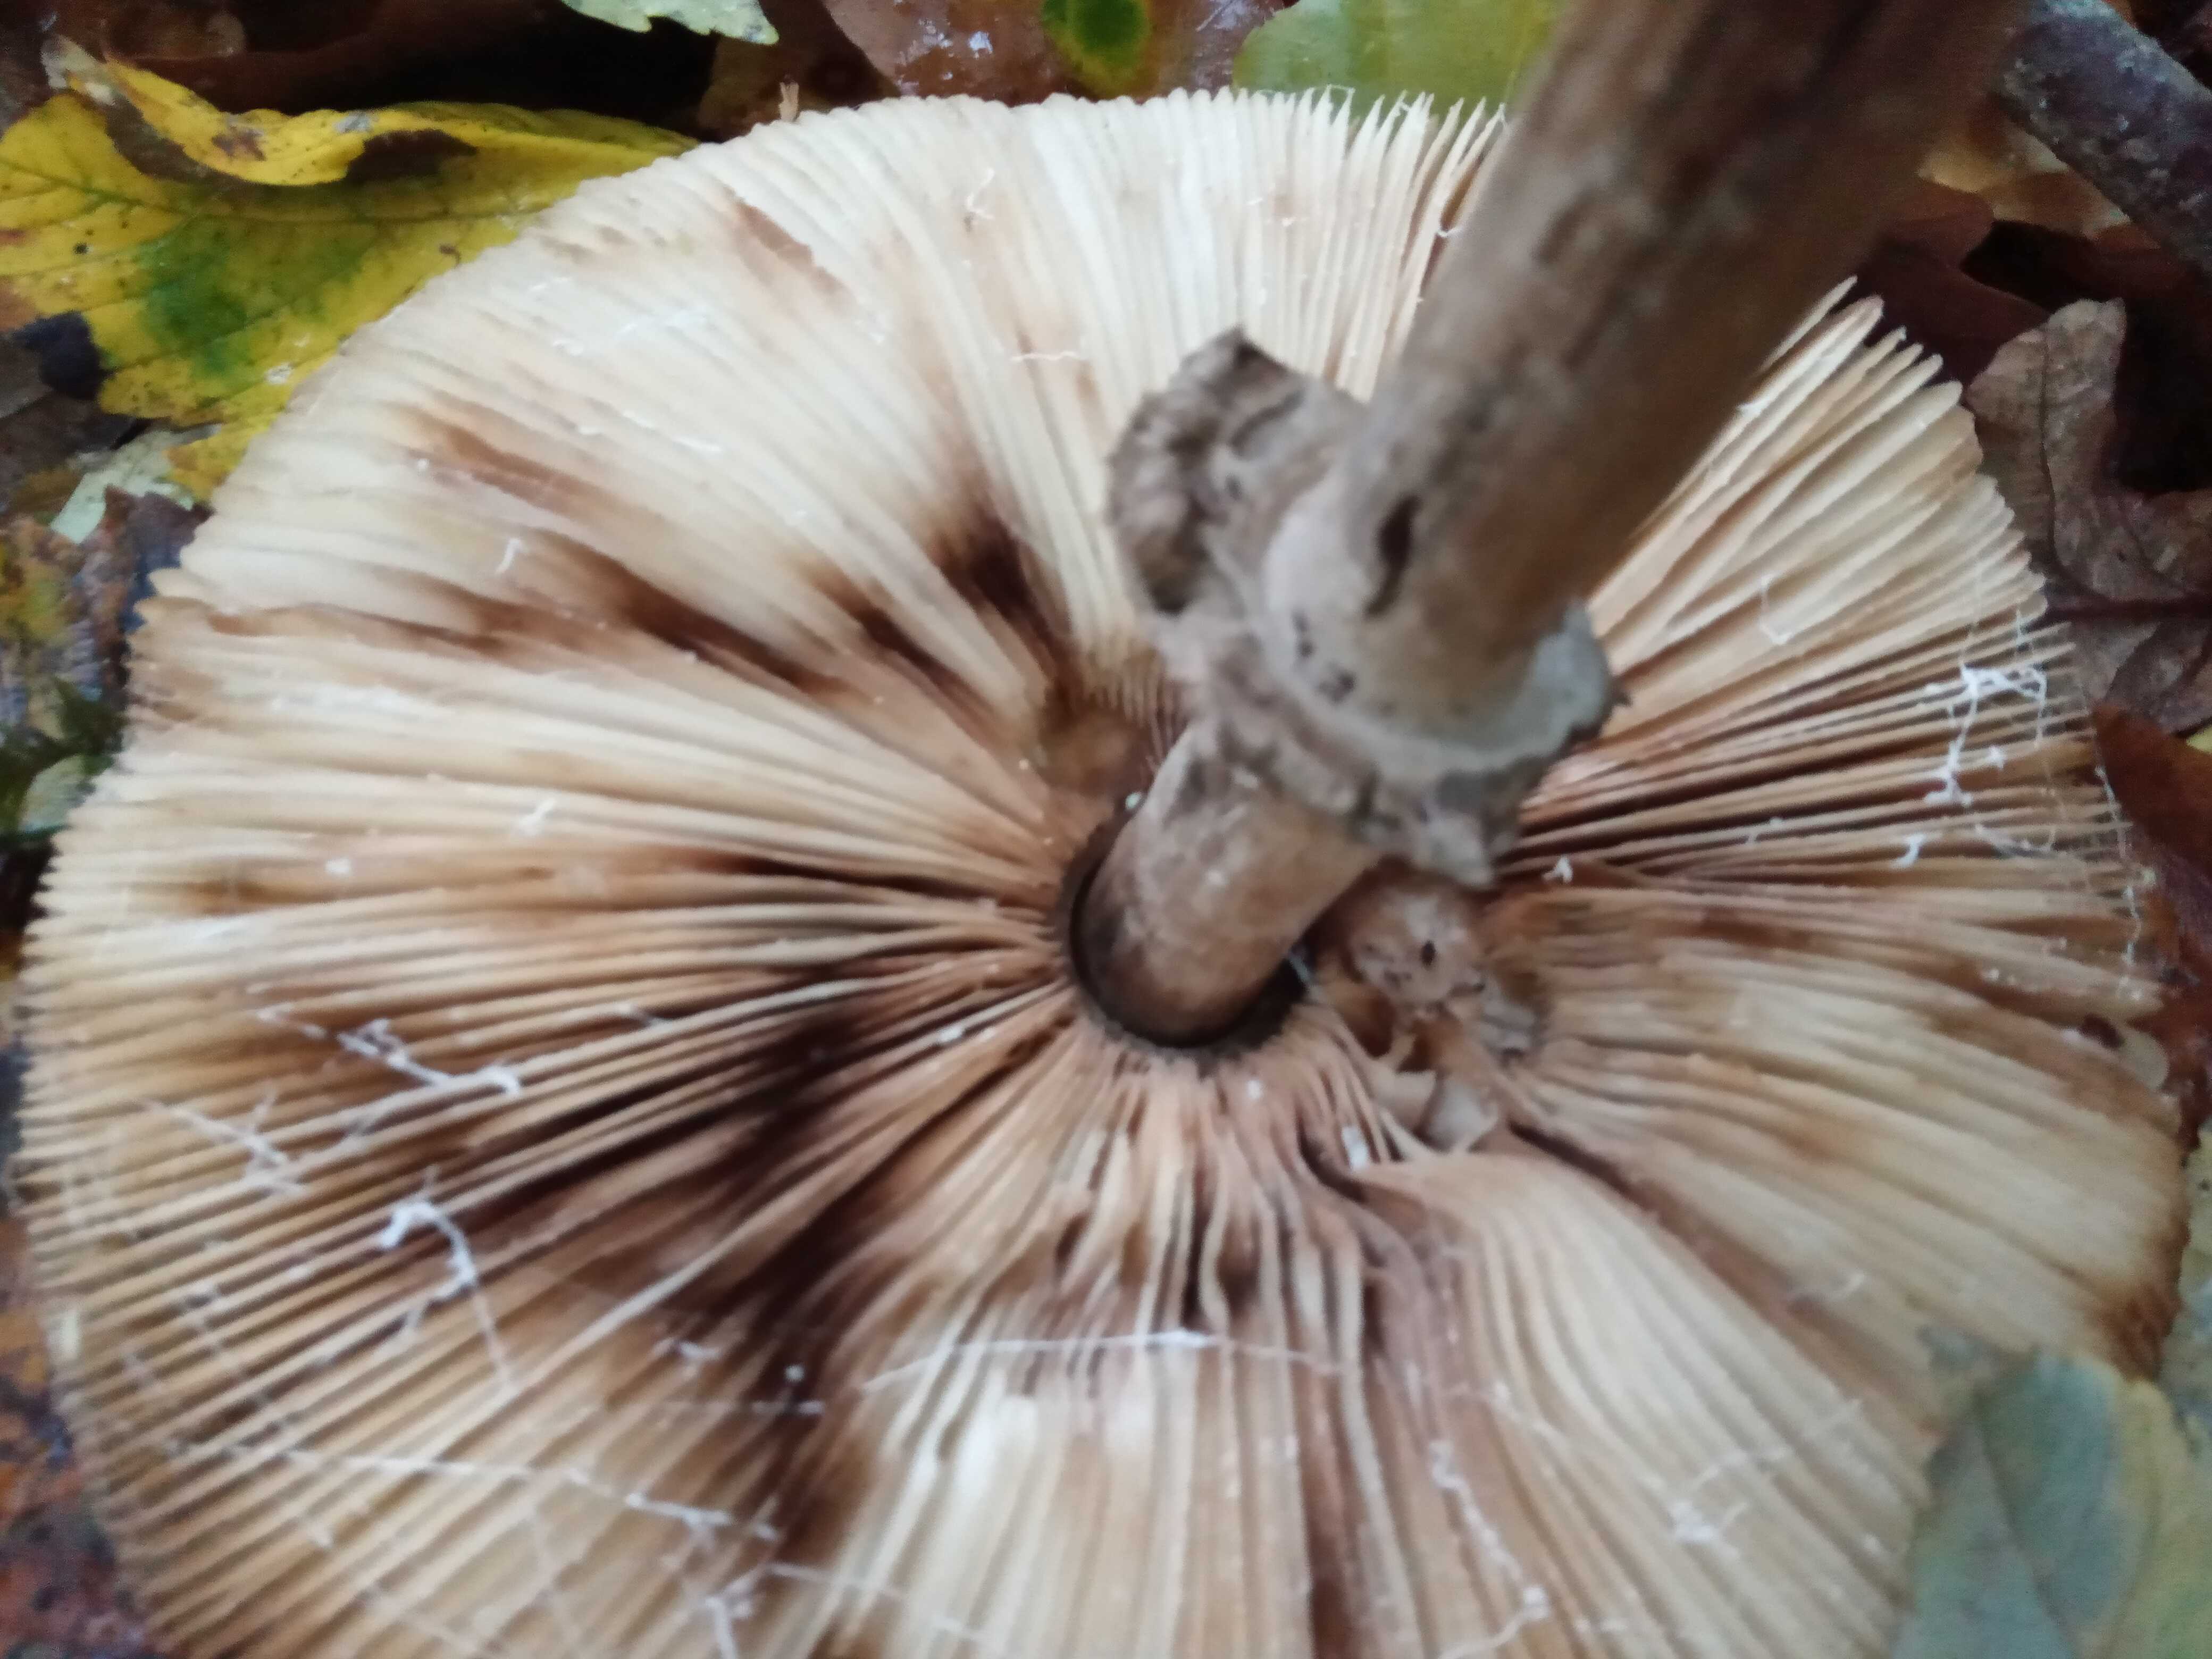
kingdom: Fungi
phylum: Basidiomycota
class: Agaricomycetes
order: Agaricales
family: Agaricaceae
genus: Chlorophyllum
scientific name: Chlorophyllum olivieri
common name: almindelig rabarberhat
